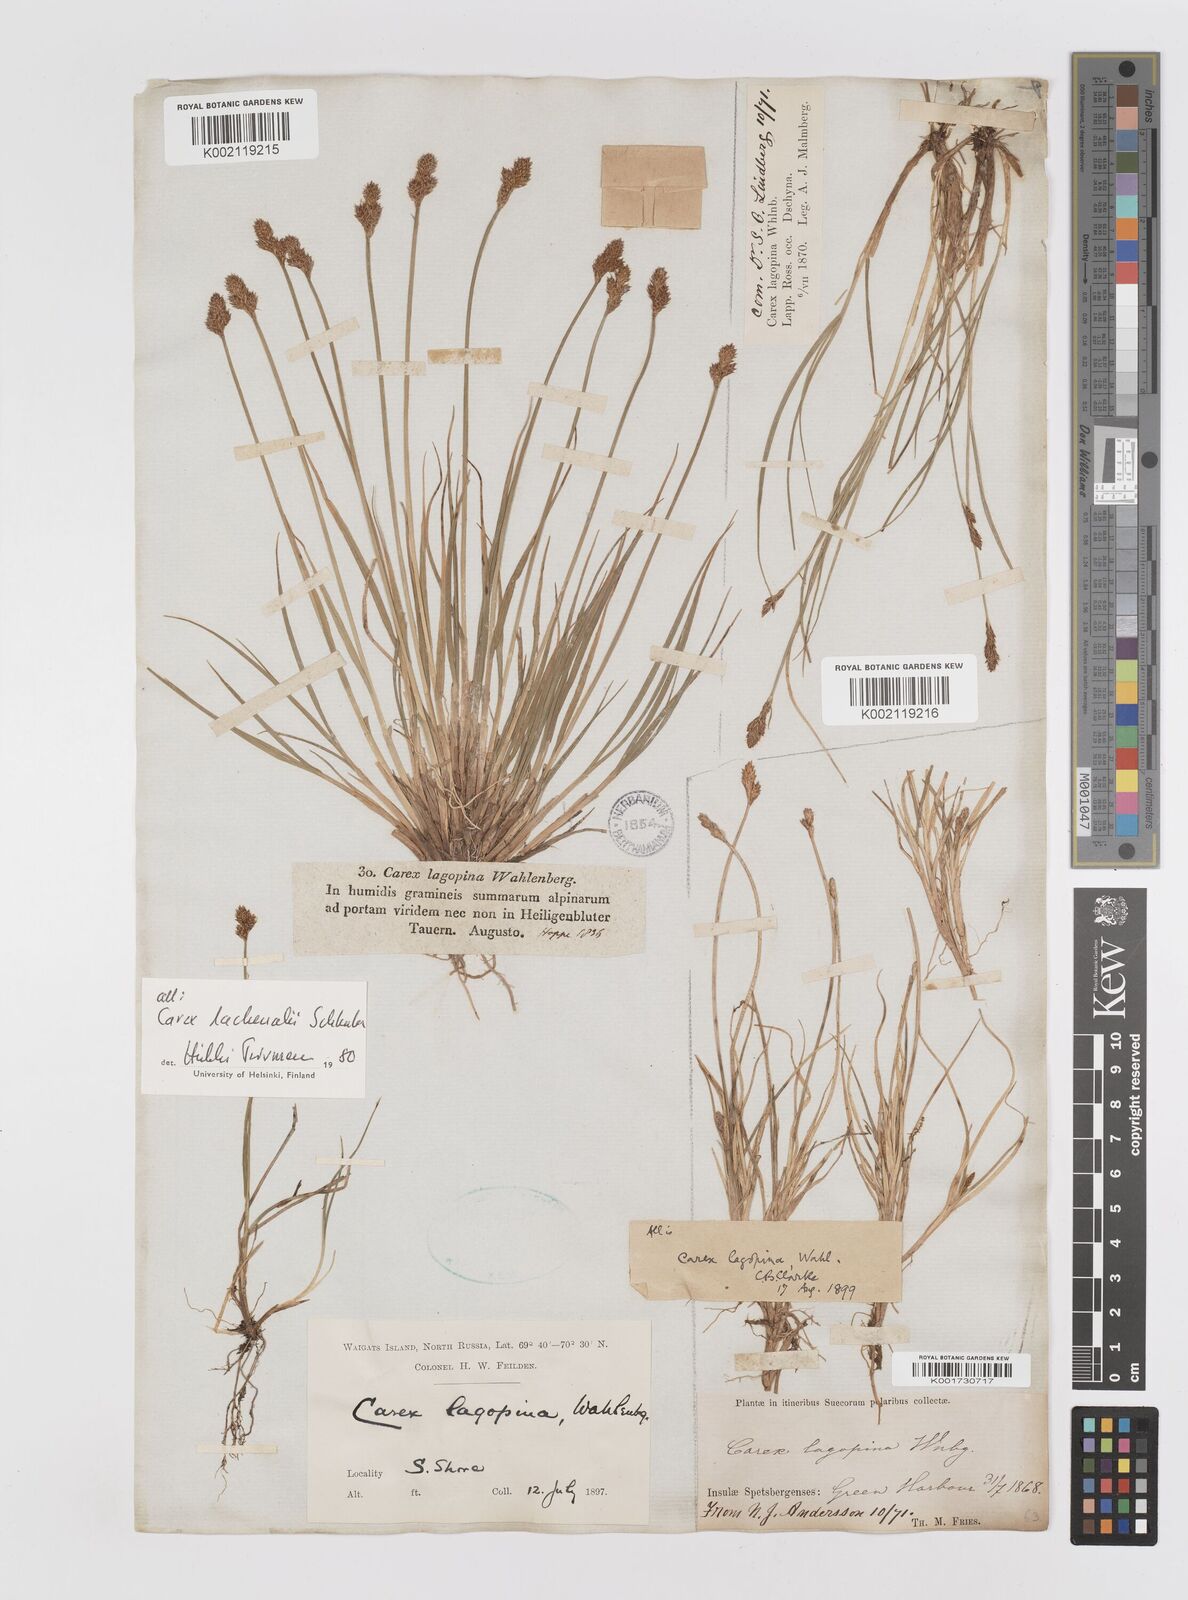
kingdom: Plantae
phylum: Tracheophyta
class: Liliopsida
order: Poales
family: Cyperaceae
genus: Carex
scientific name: Carex lachenalii
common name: Hare's-foot sedge
